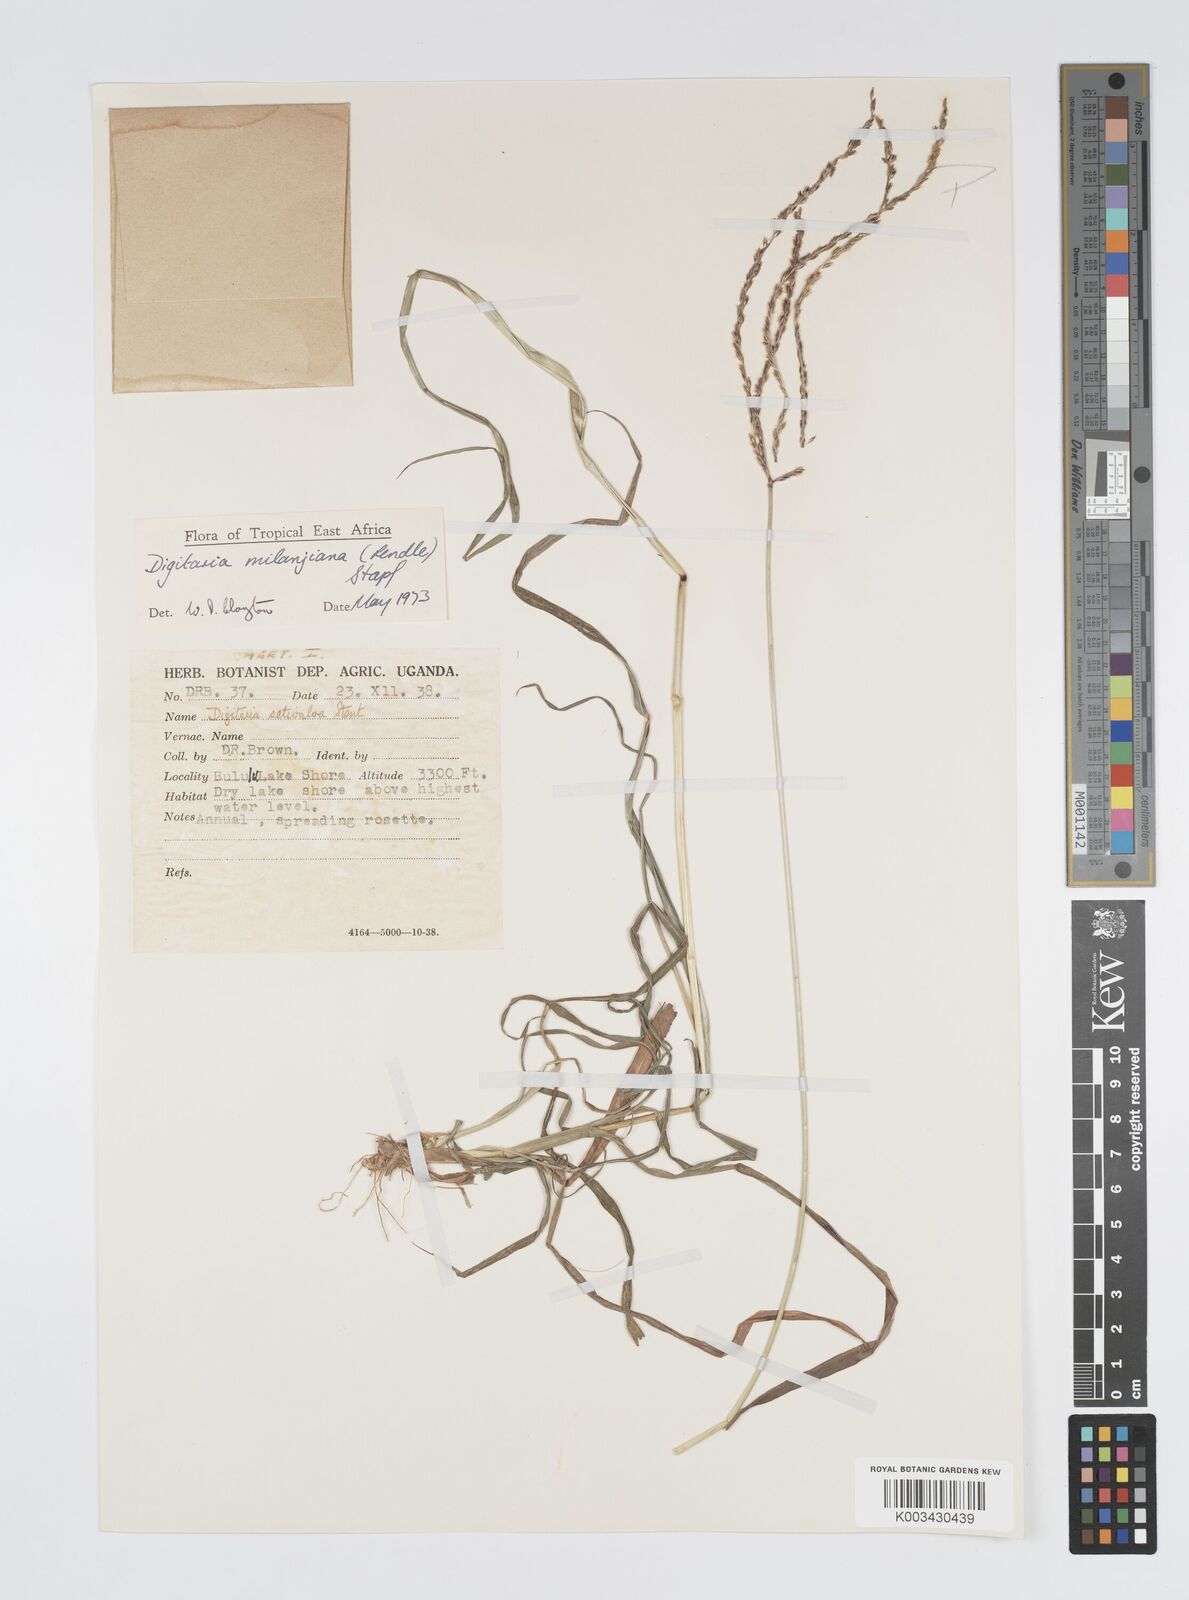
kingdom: Plantae
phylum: Tracheophyta
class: Liliopsida
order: Poales
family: Poaceae
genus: Digitaria
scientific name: Digitaria milanjiana
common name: Madagascar crabgrass
